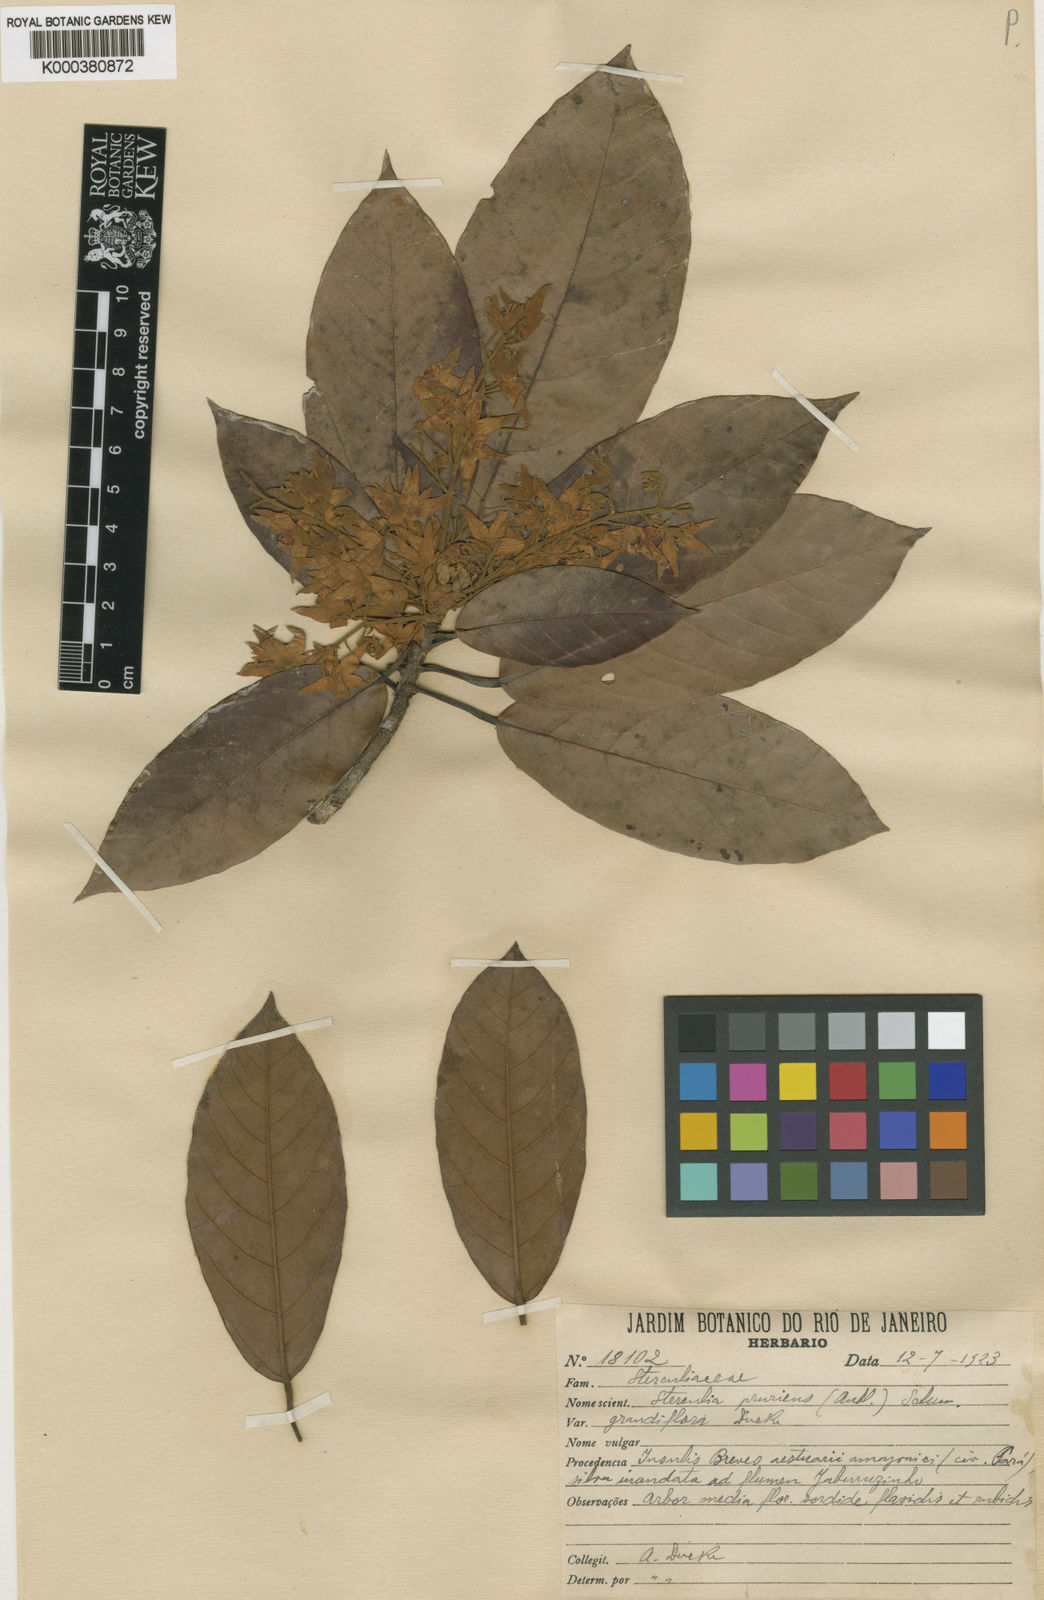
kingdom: Plantae
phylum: Tracheophyta
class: Magnoliopsida
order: Malvales
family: Malvaceae
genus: Sterculia
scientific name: Sterculia pruriens
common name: Grand mahot
